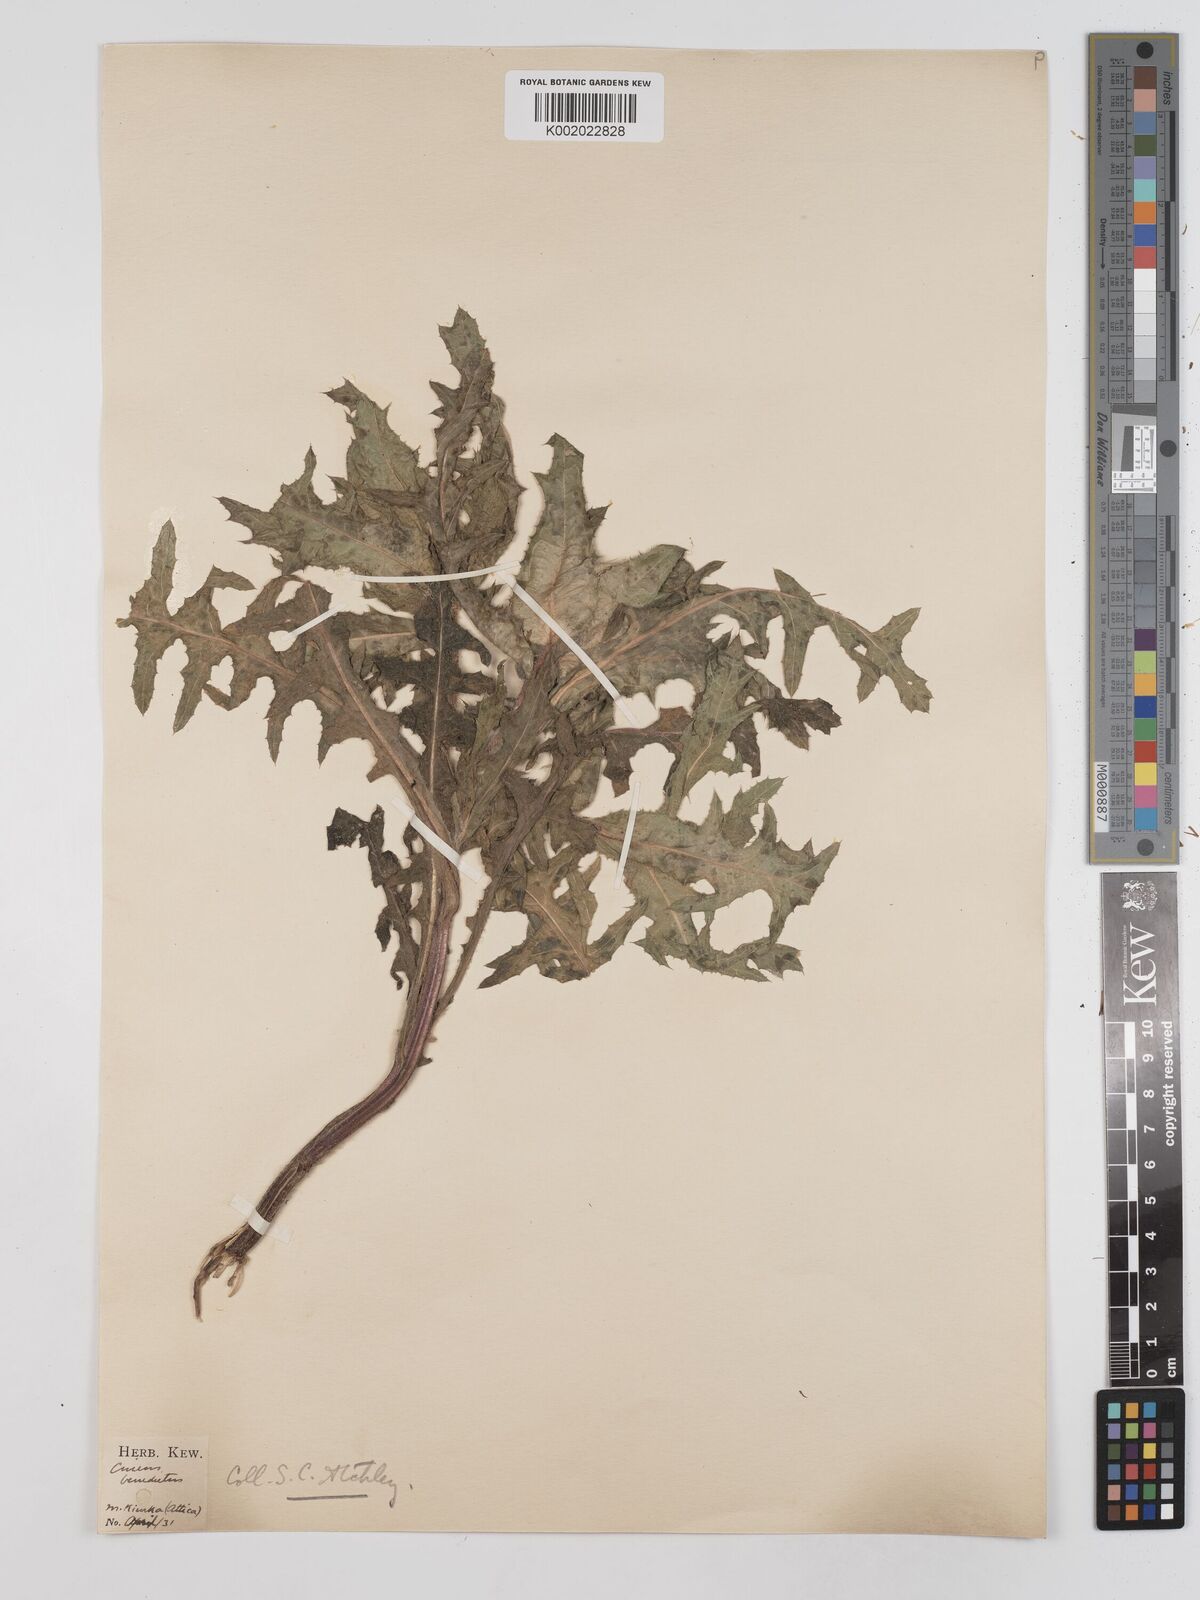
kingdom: Plantae
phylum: Tracheophyta
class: Magnoliopsida
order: Asterales
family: Asteraceae
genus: Centaurea
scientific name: Centaurea benedicta
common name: Blessed thistle
